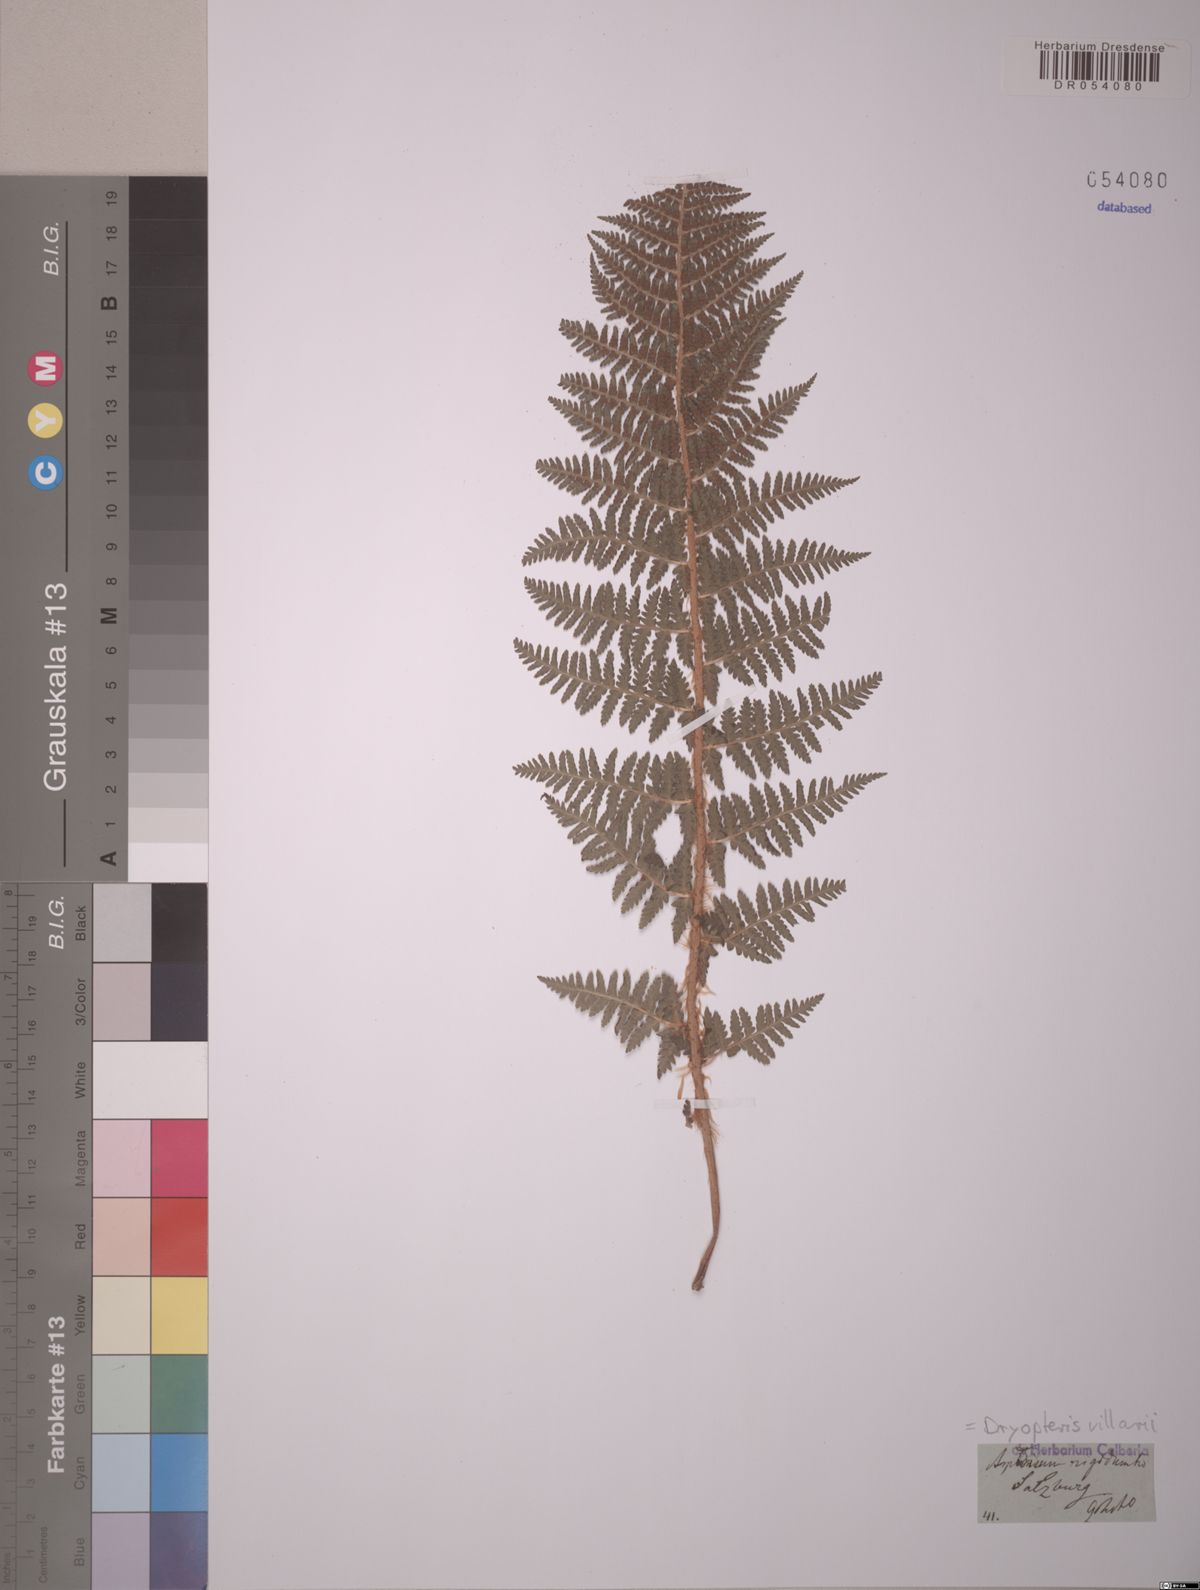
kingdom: Plantae
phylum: Tracheophyta
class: Polypodiopsida
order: Polypodiales
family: Dryopteridaceae
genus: Dryopteris
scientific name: Dryopteris villarii
